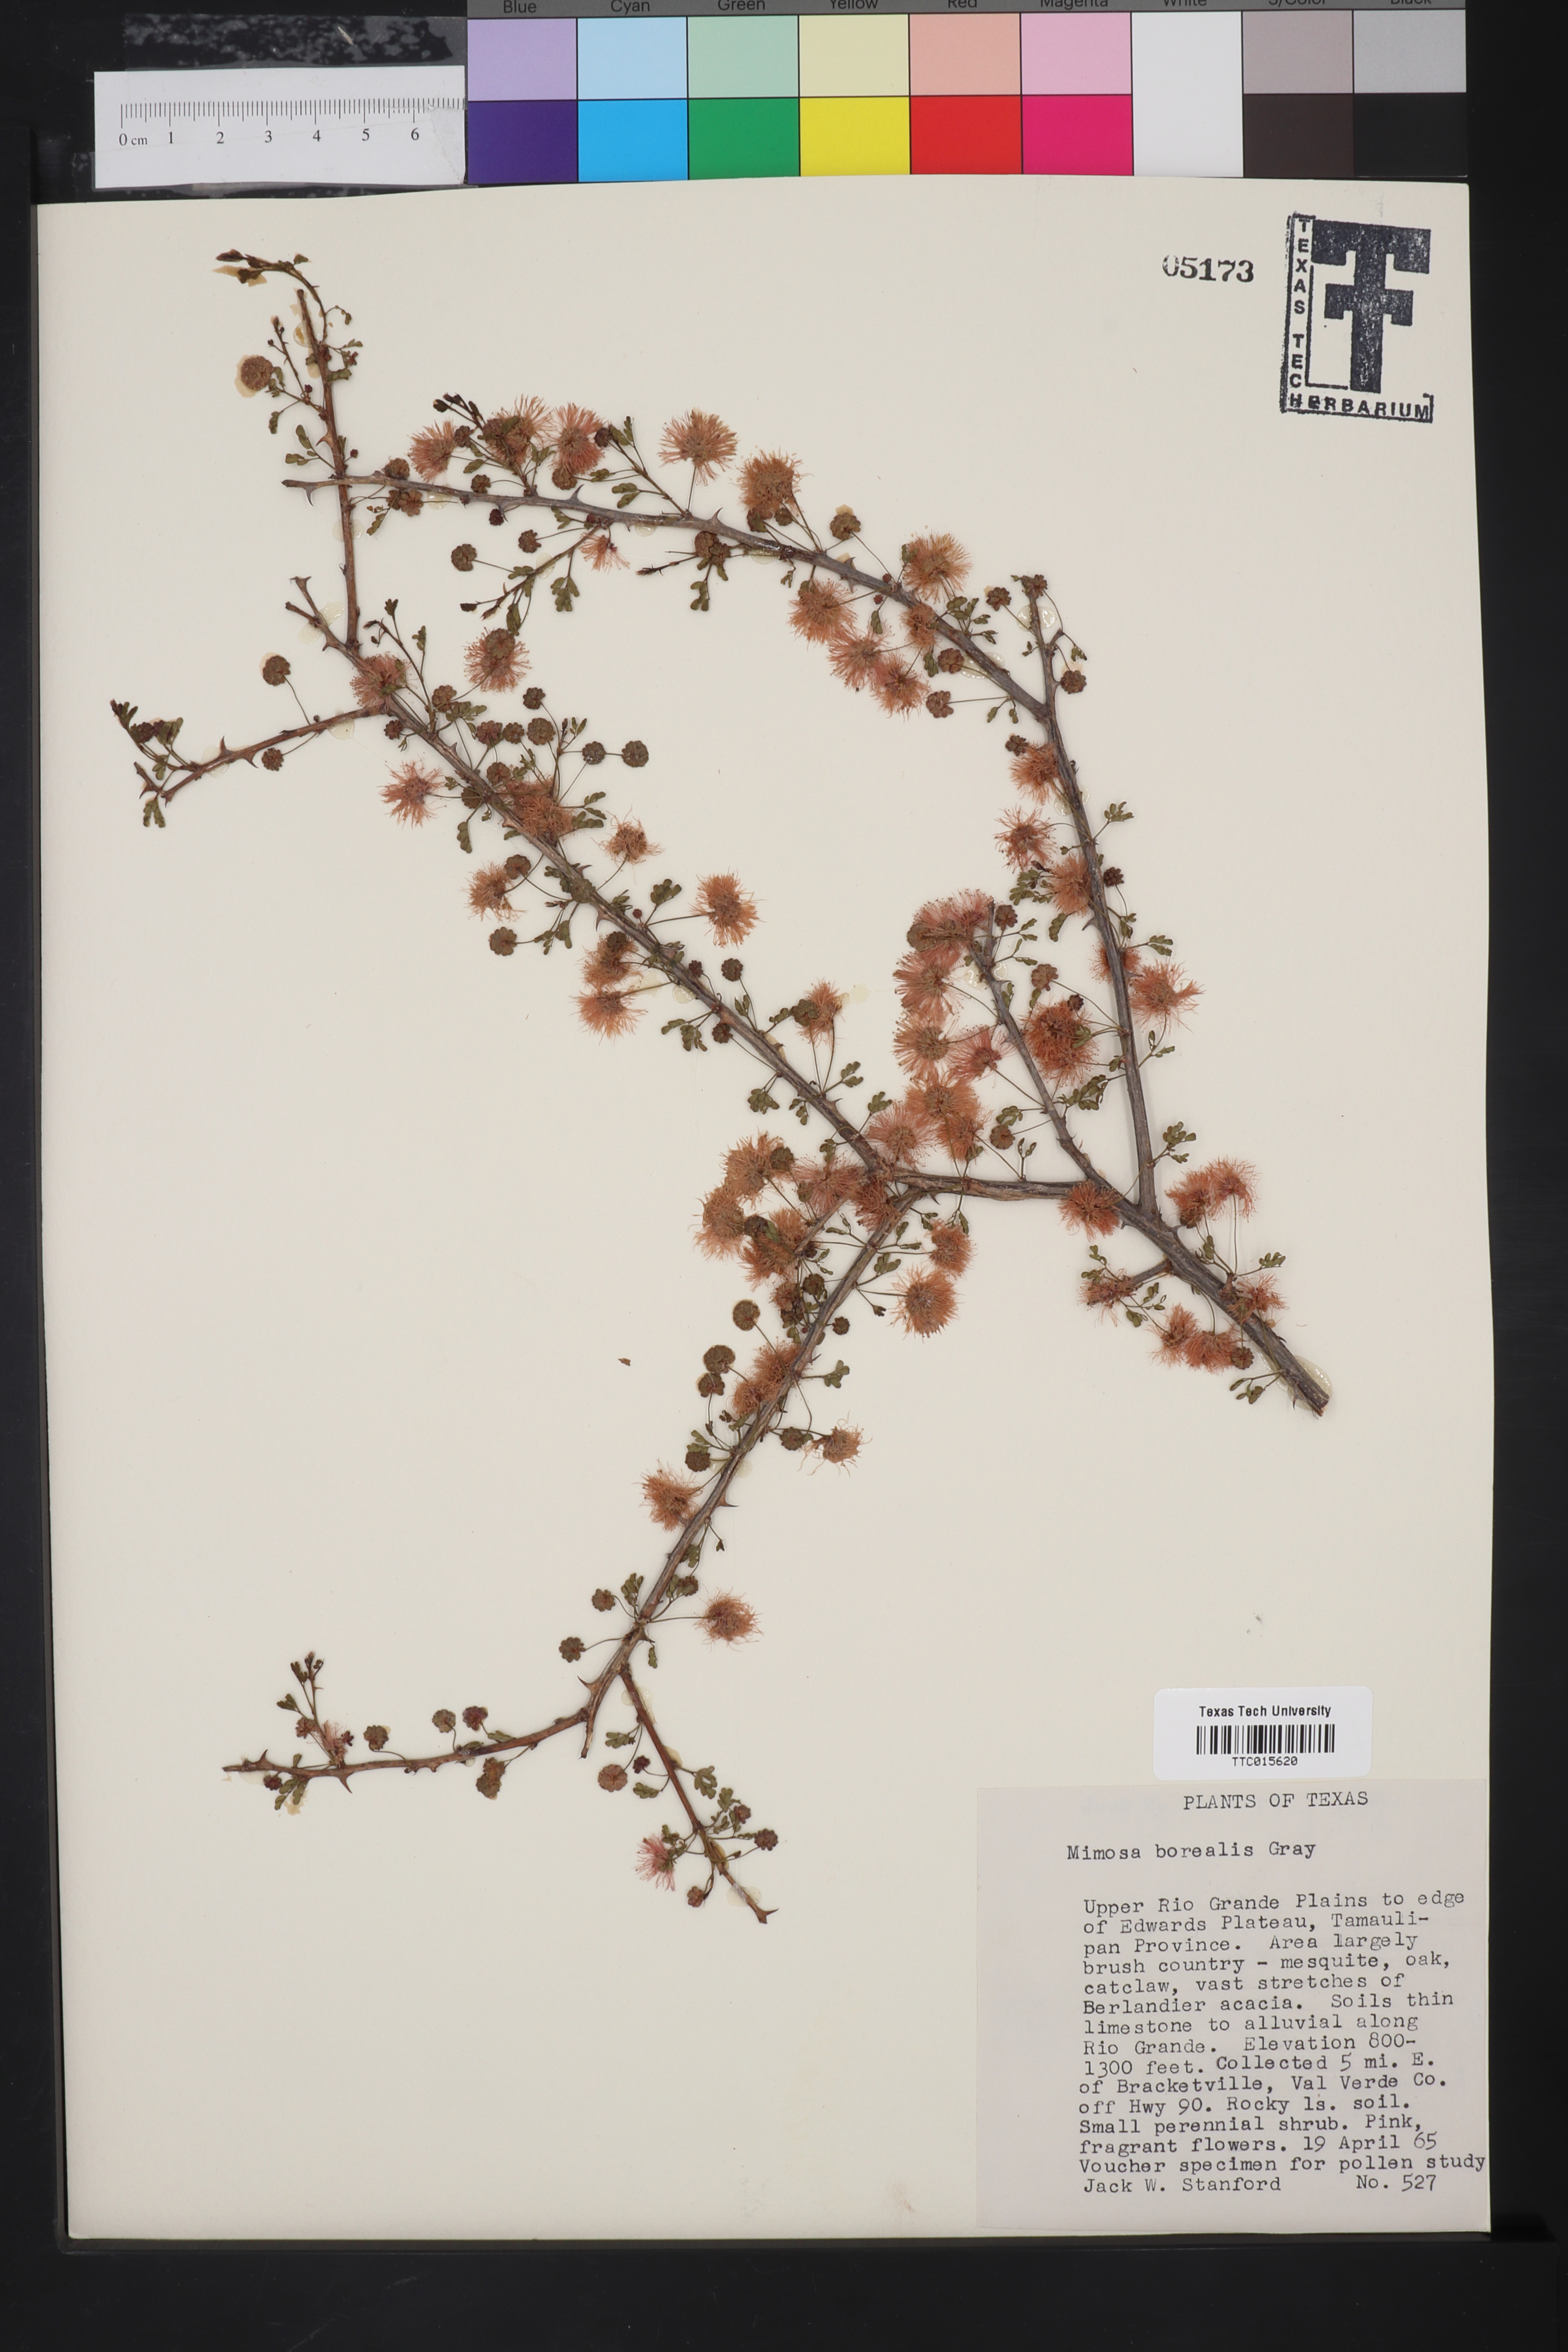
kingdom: Plantae
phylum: Tracheophyta
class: Magnoliopsida
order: Fabales
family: Fabaceae
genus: Mimosa
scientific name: Mimosa borealis
